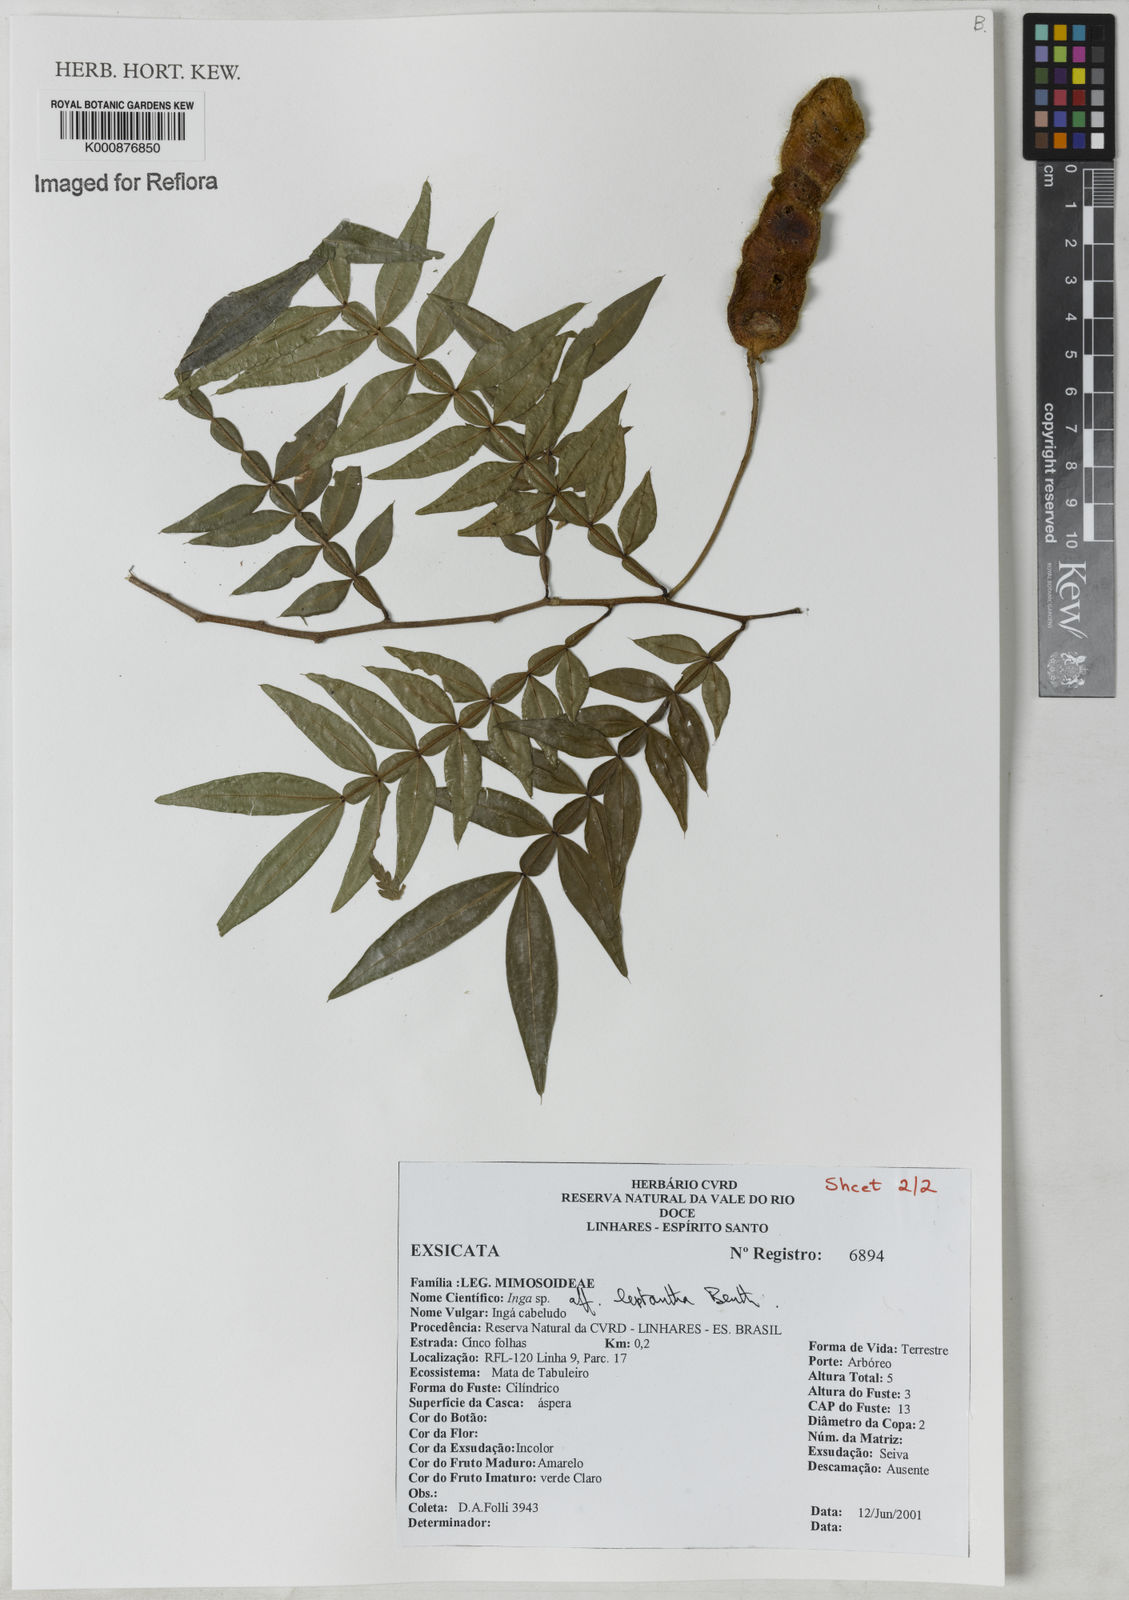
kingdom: Plantae
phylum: Tracheophyta
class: Magnoliopsida
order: Fabales
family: Fabaceae
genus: Inga
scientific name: Inga leptantha
